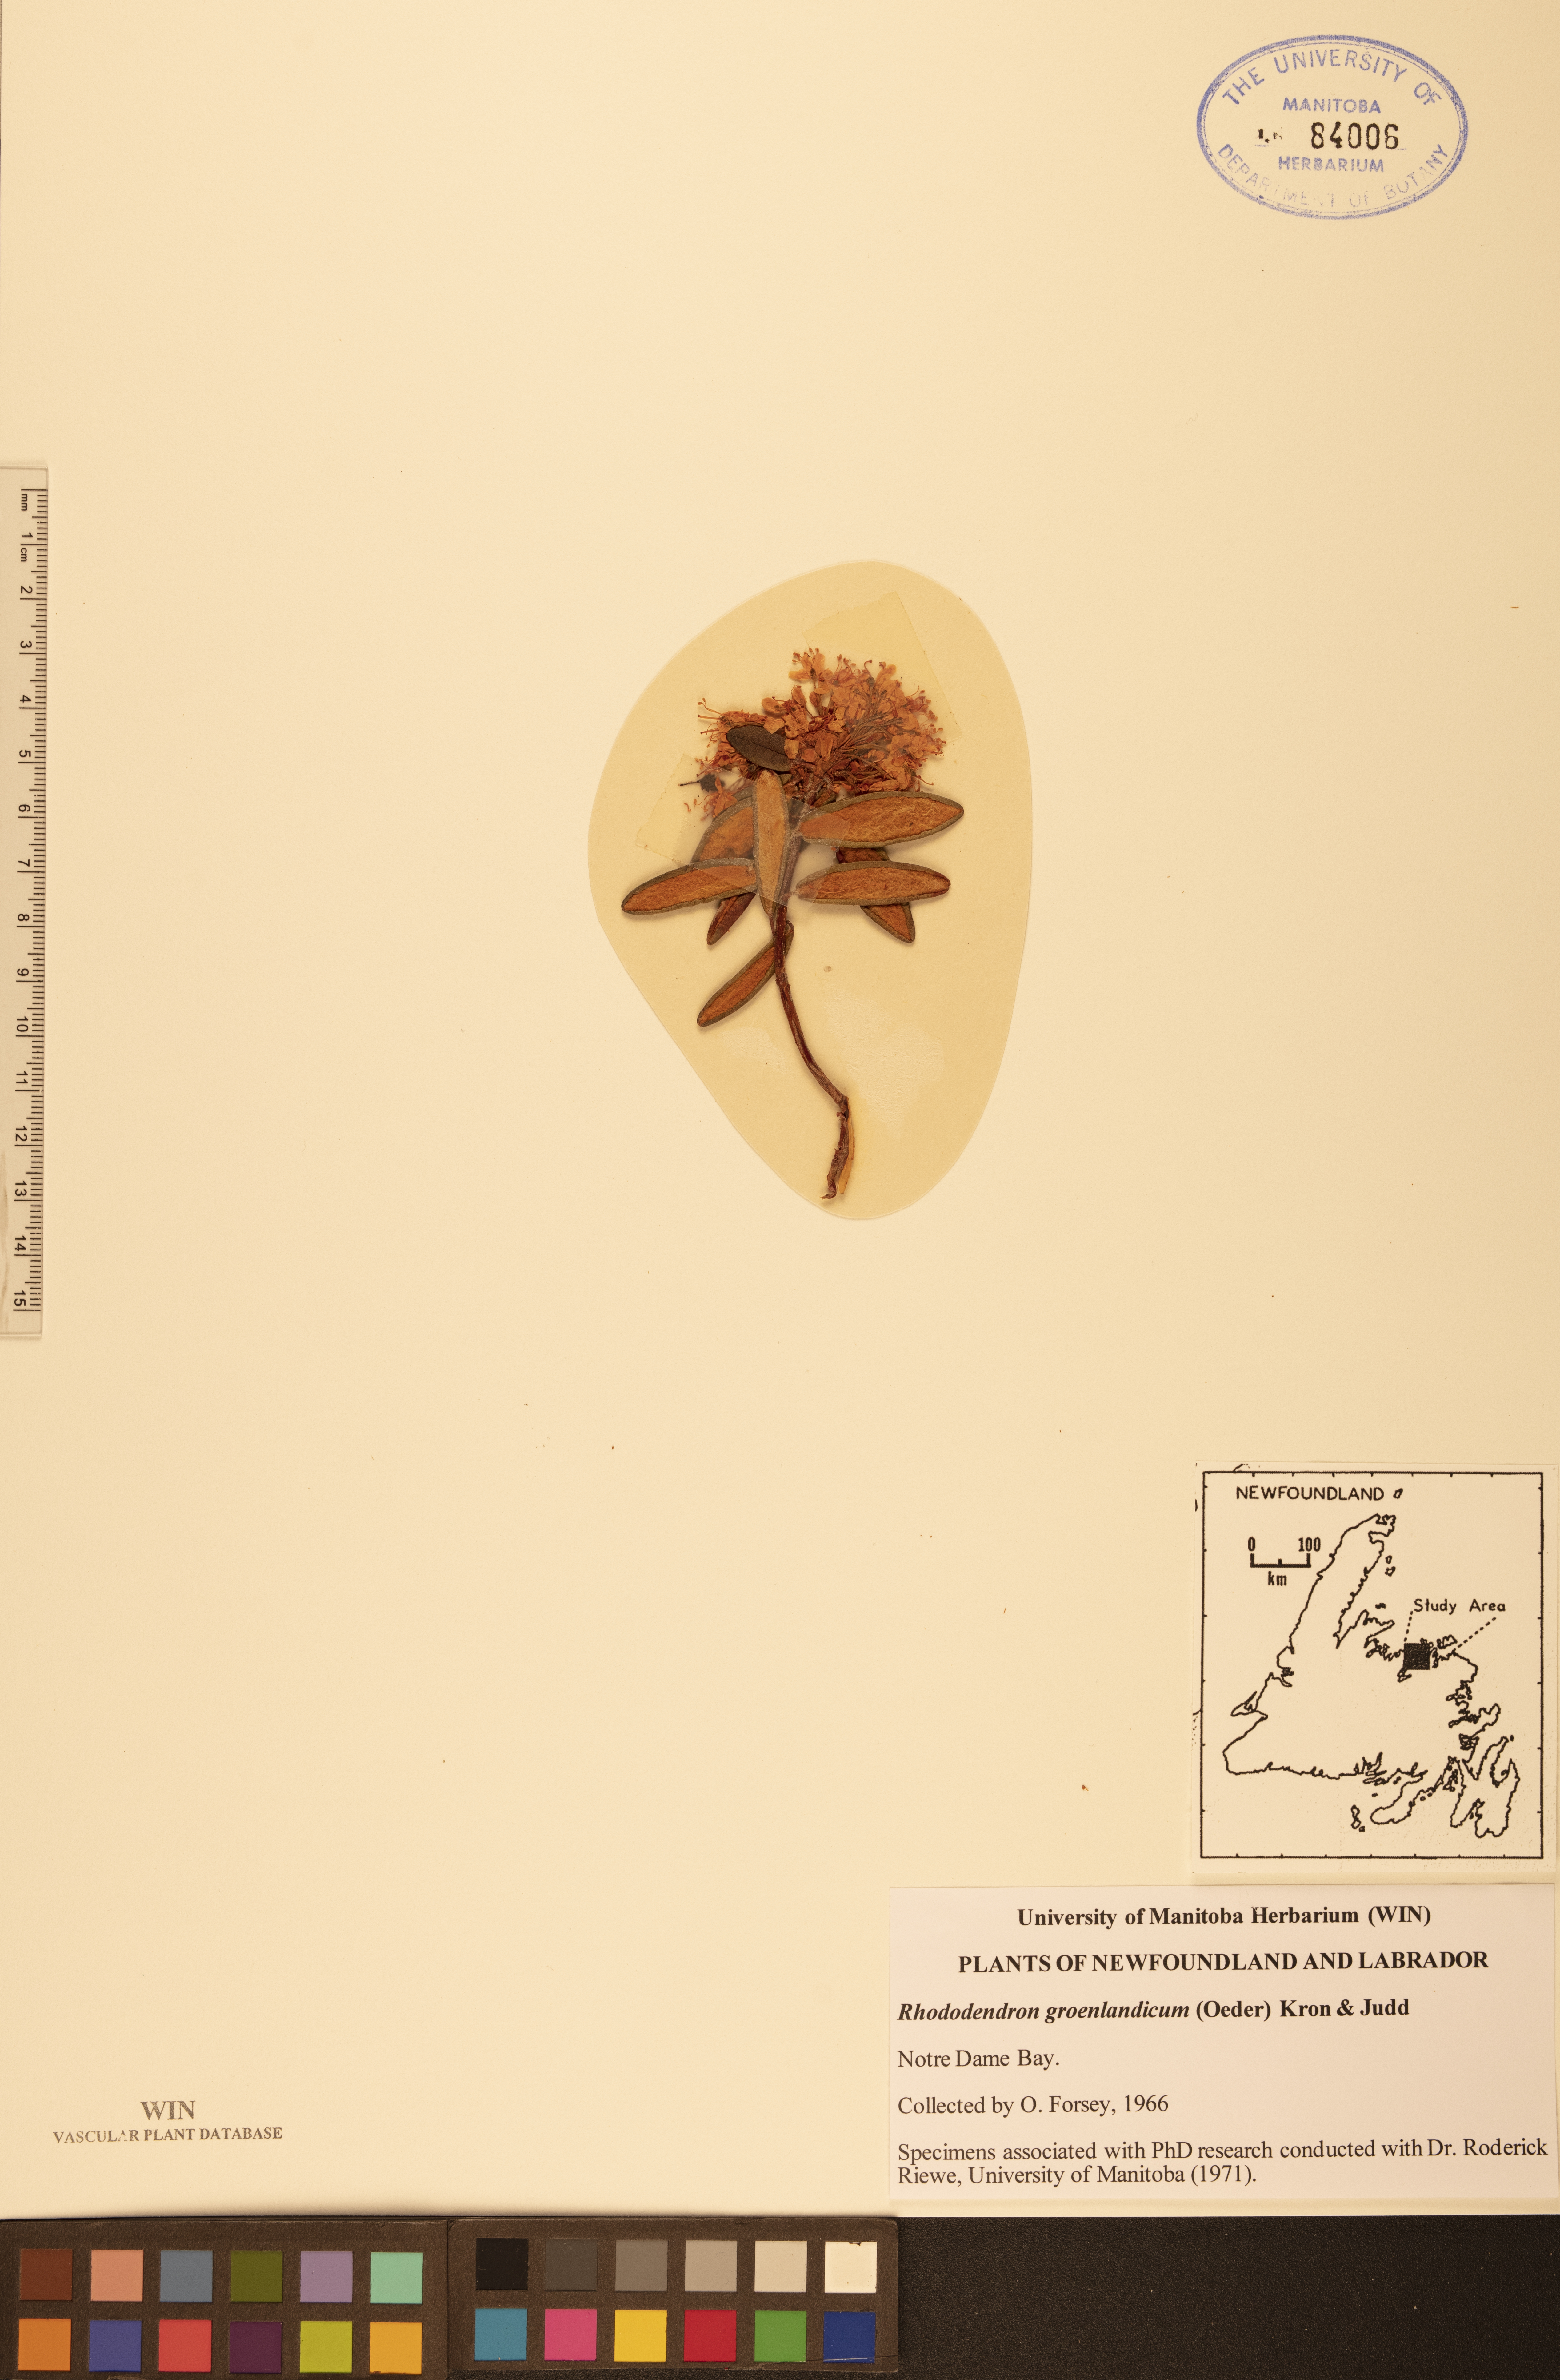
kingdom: Plantae
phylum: Tracheophyta
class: Magnoliopsida
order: Ericales
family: Ericaceae
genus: Rhododendron
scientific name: Rhododendron groenlandicum
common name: Bog labrador tea
